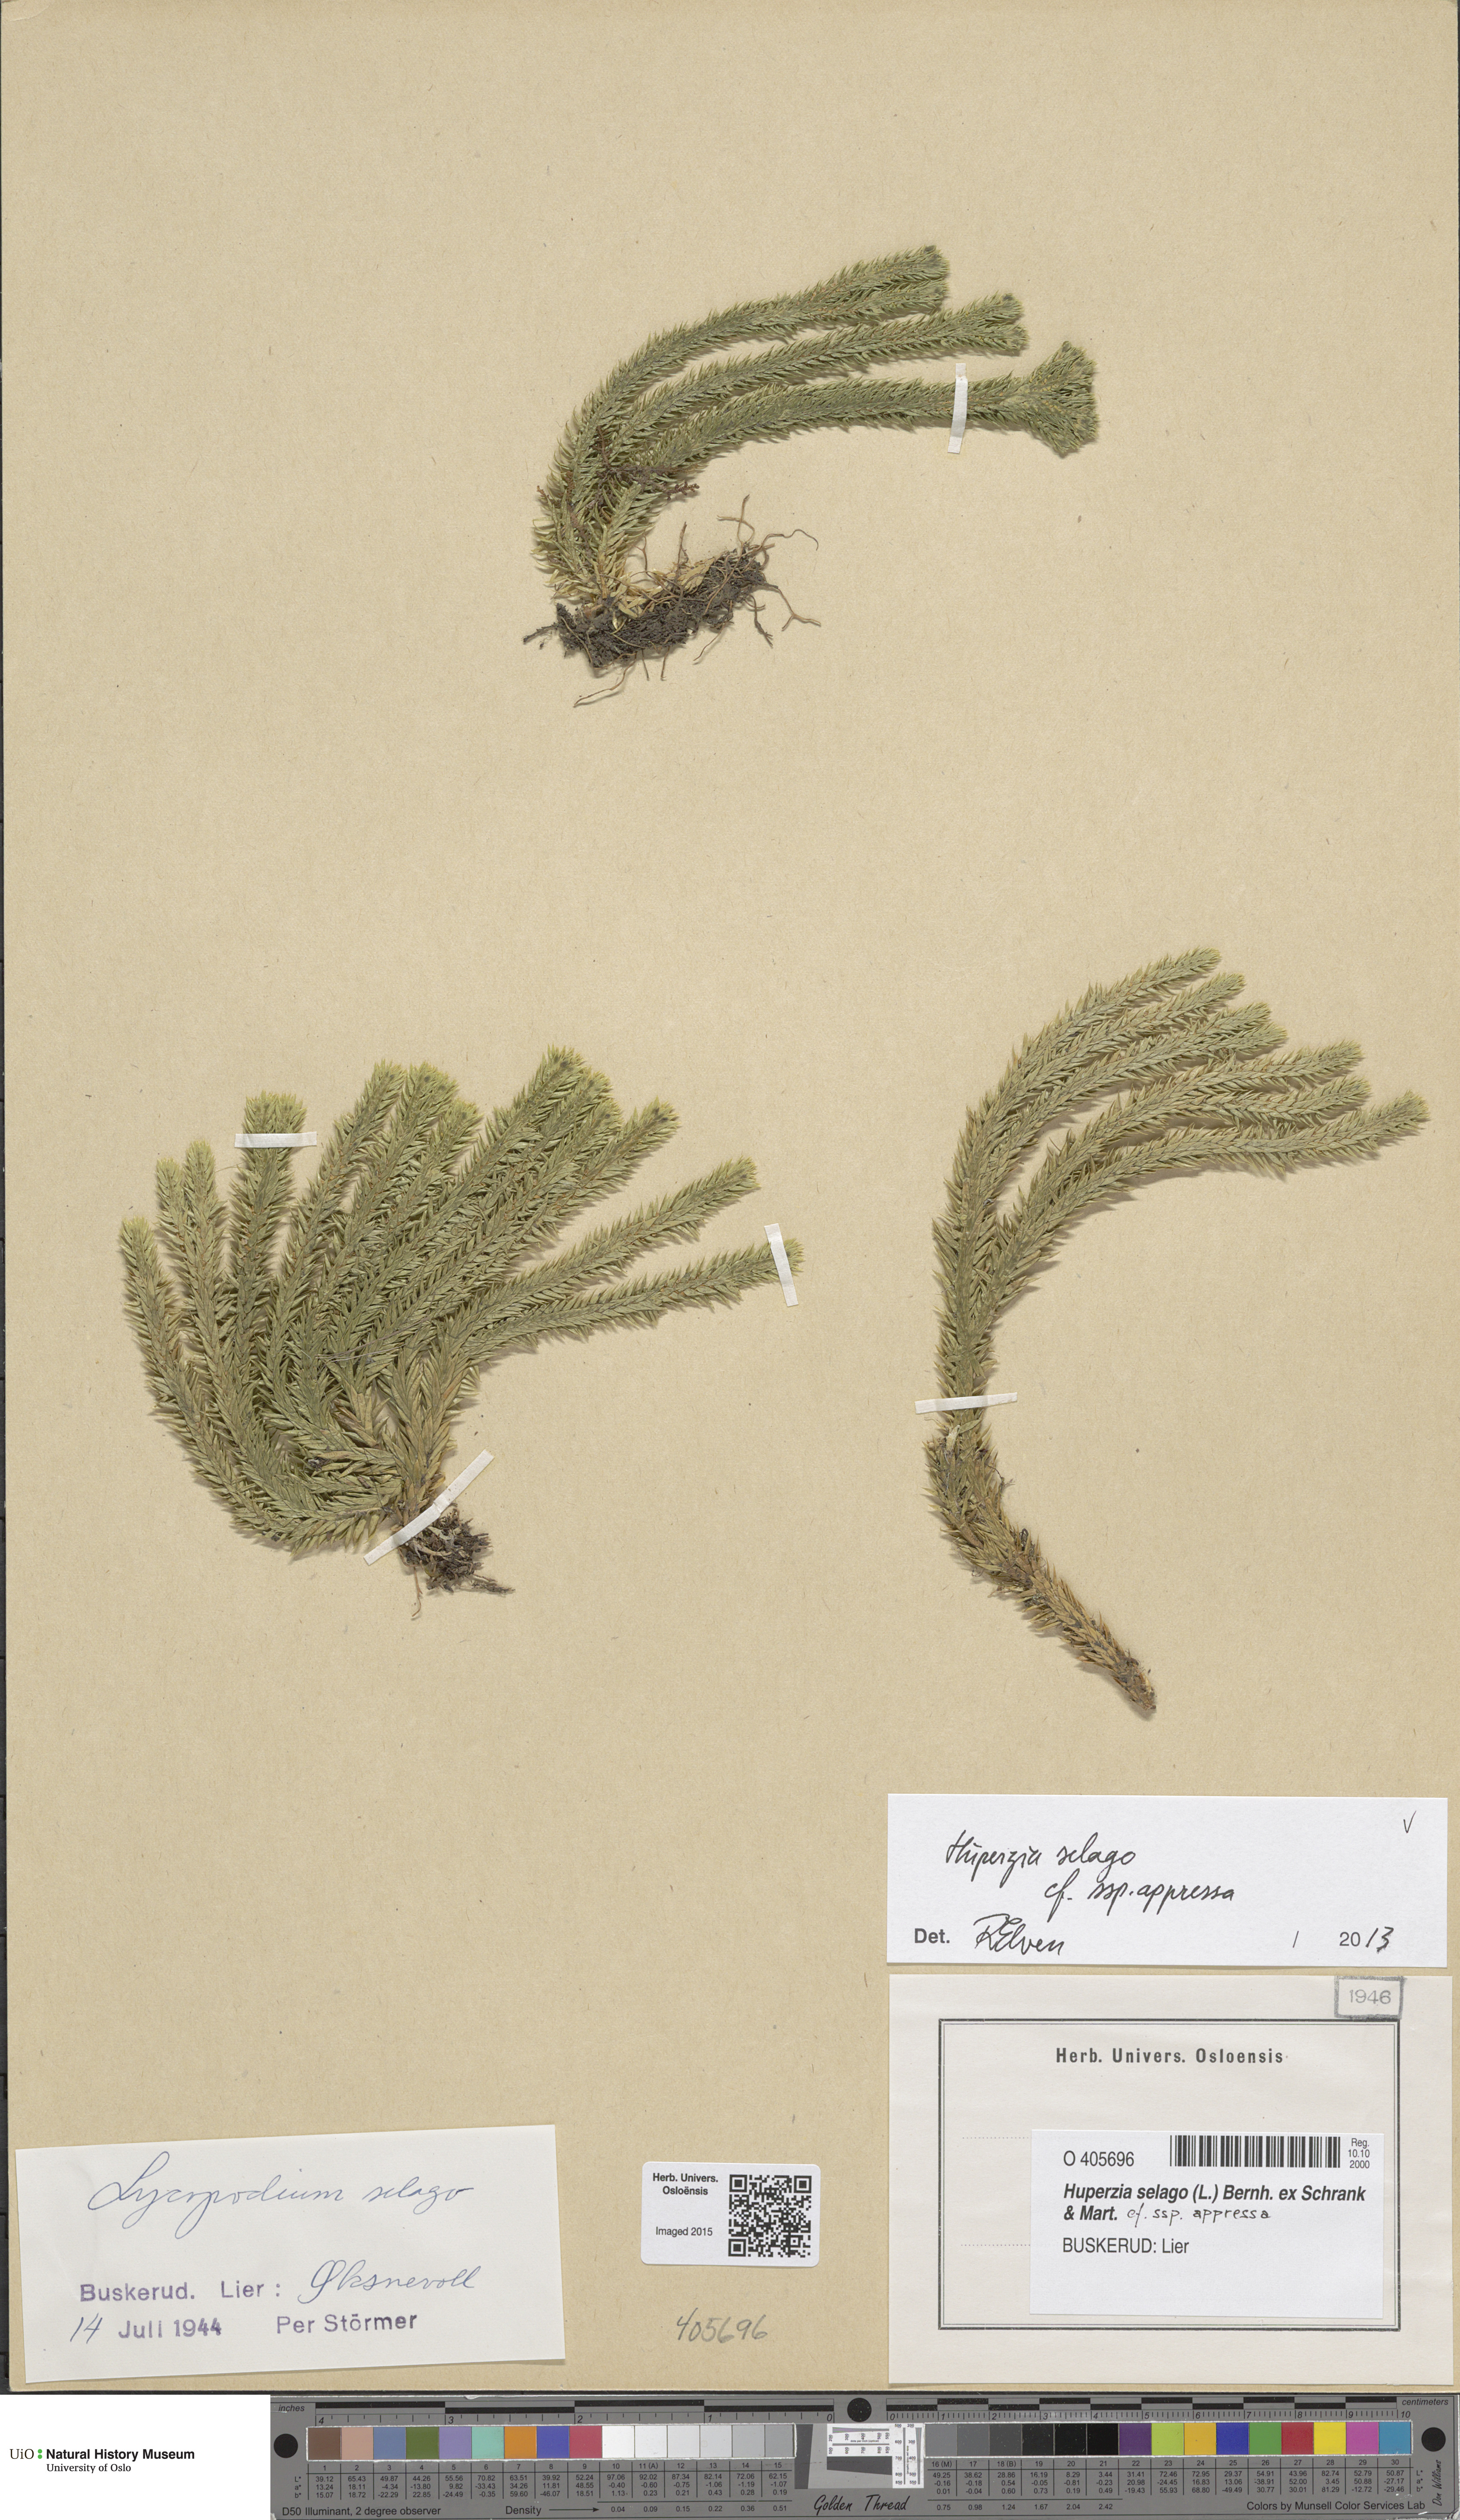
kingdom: Plantae
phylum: Tracheophyta
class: Lycopodiopsida
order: Lycopodiales
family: Lycopodiaceae
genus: Huperzia
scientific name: Huperzia selago
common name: Northern firmoss
